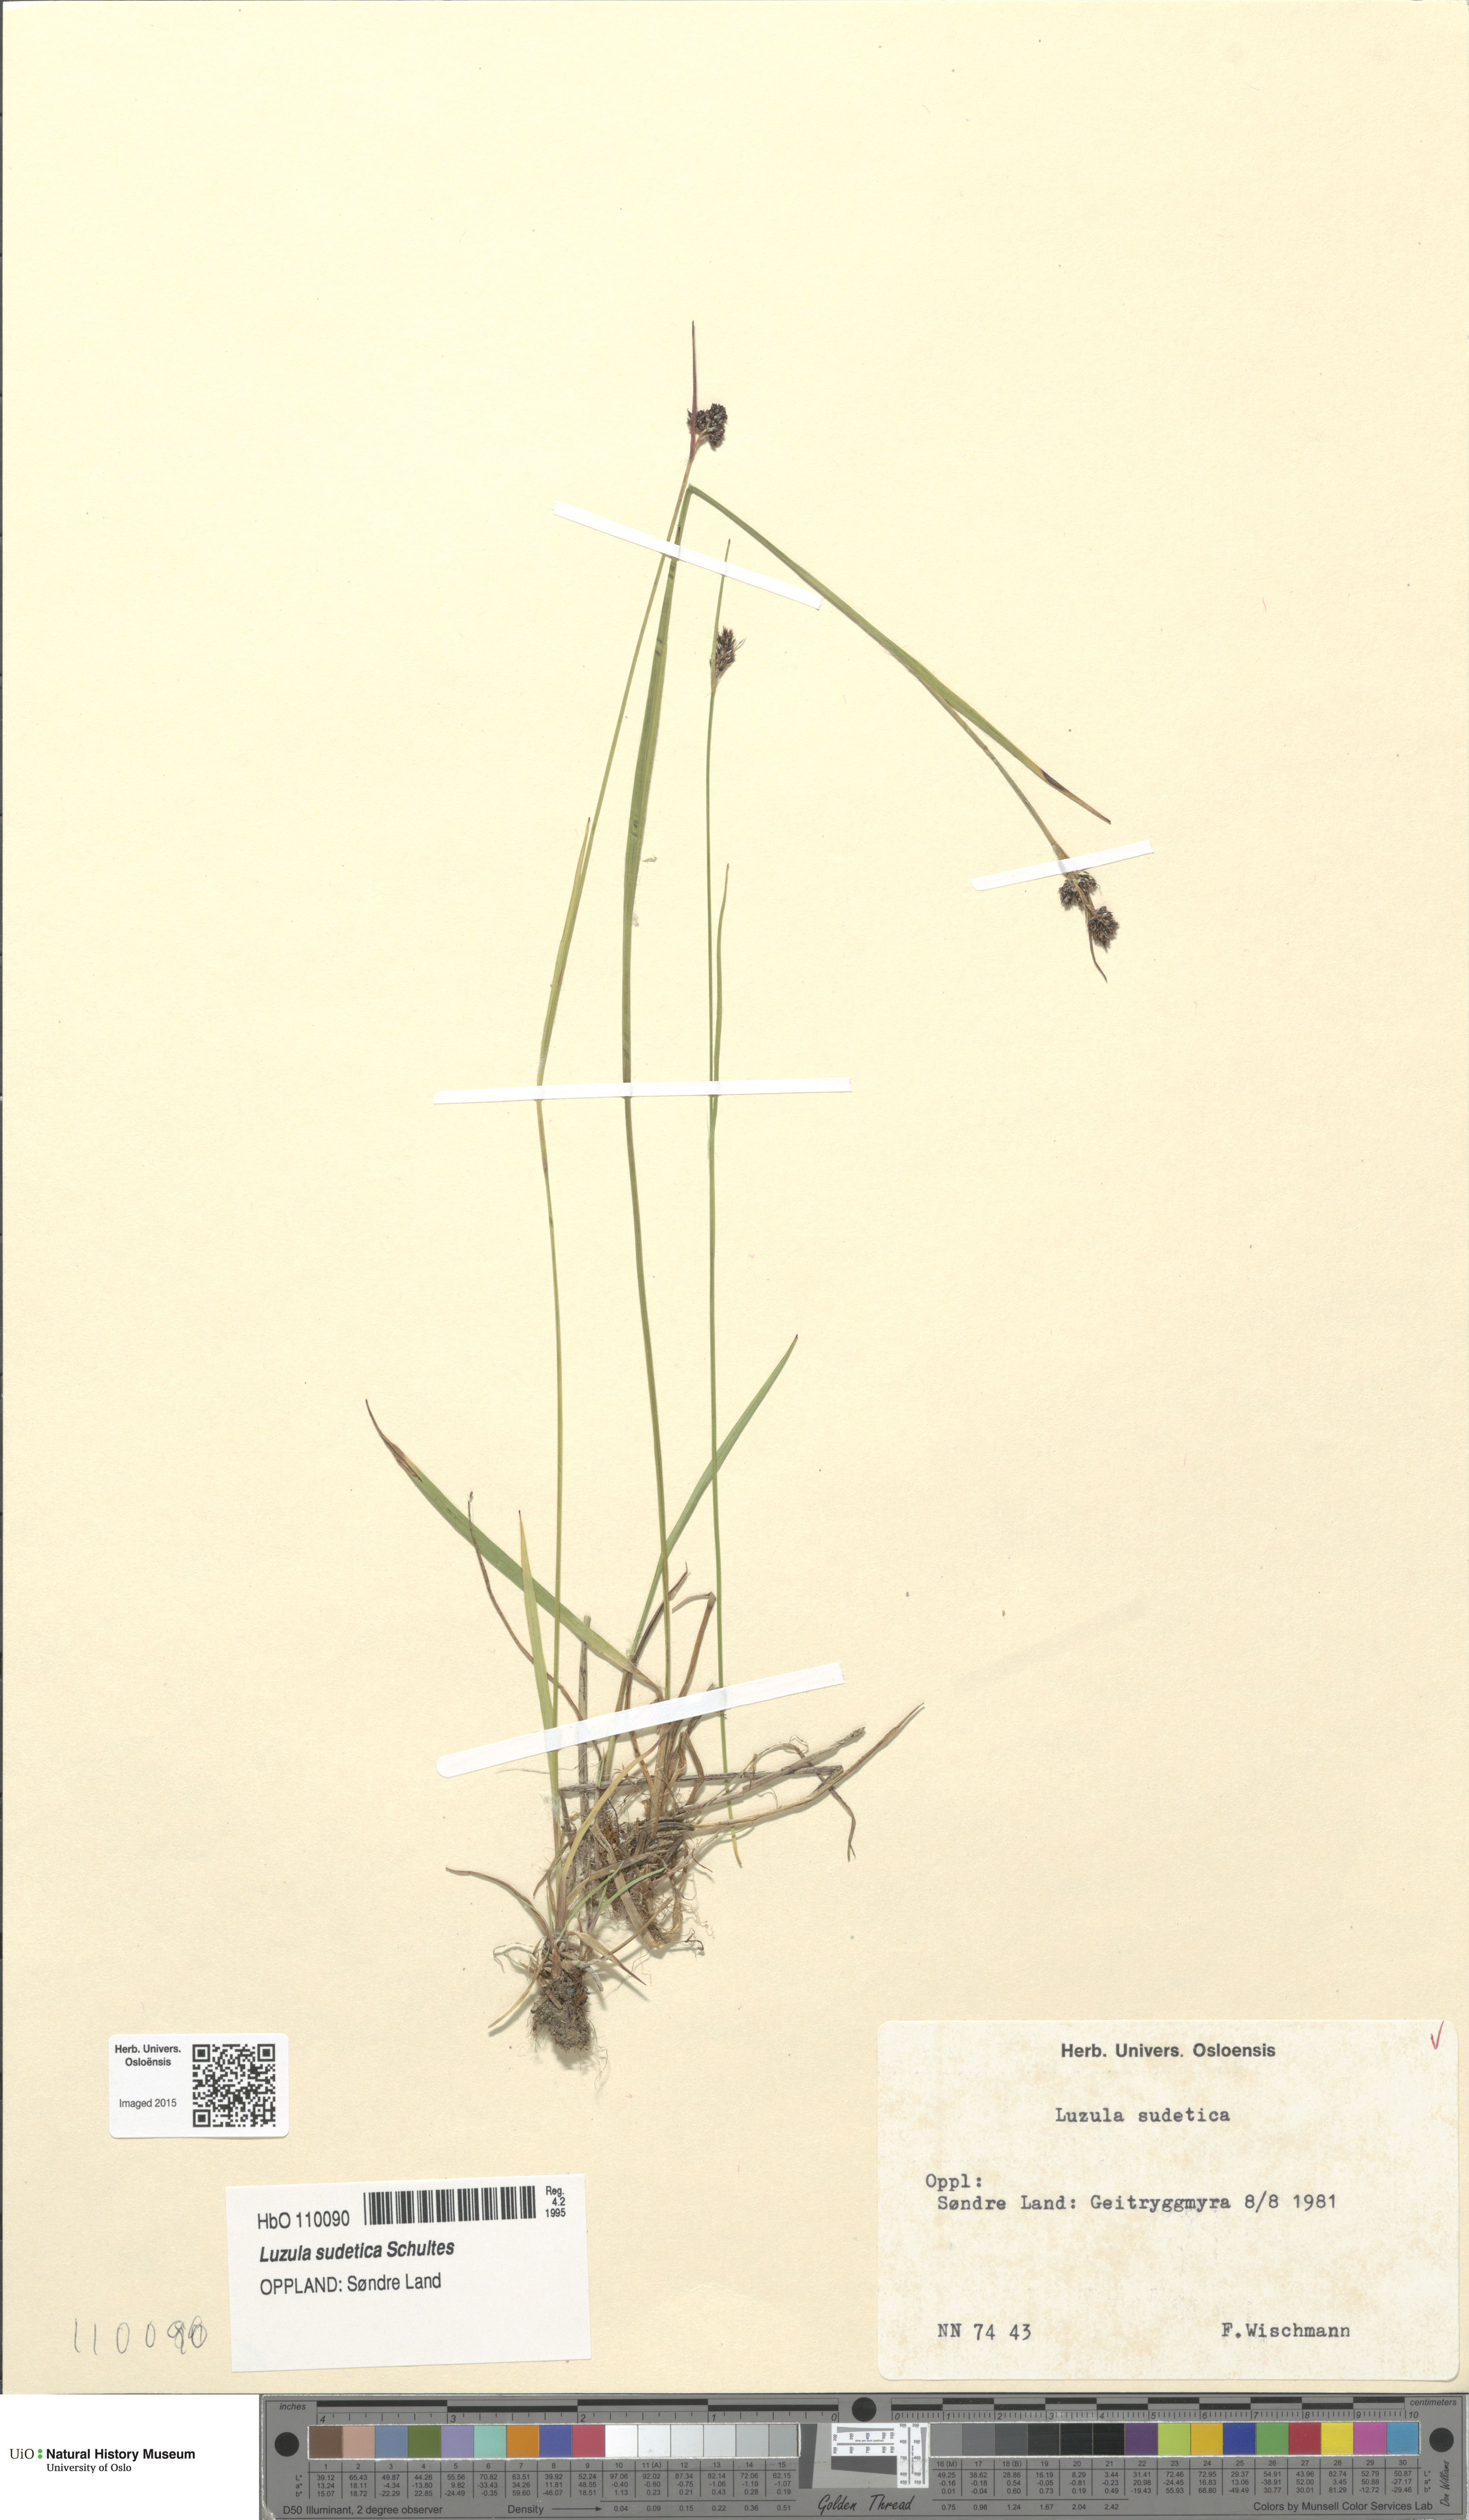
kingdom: Plantae
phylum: Tracheophyta
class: Liliopsida
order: Poales
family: Juncaceae
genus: Luzula
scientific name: Luzula sudetica
